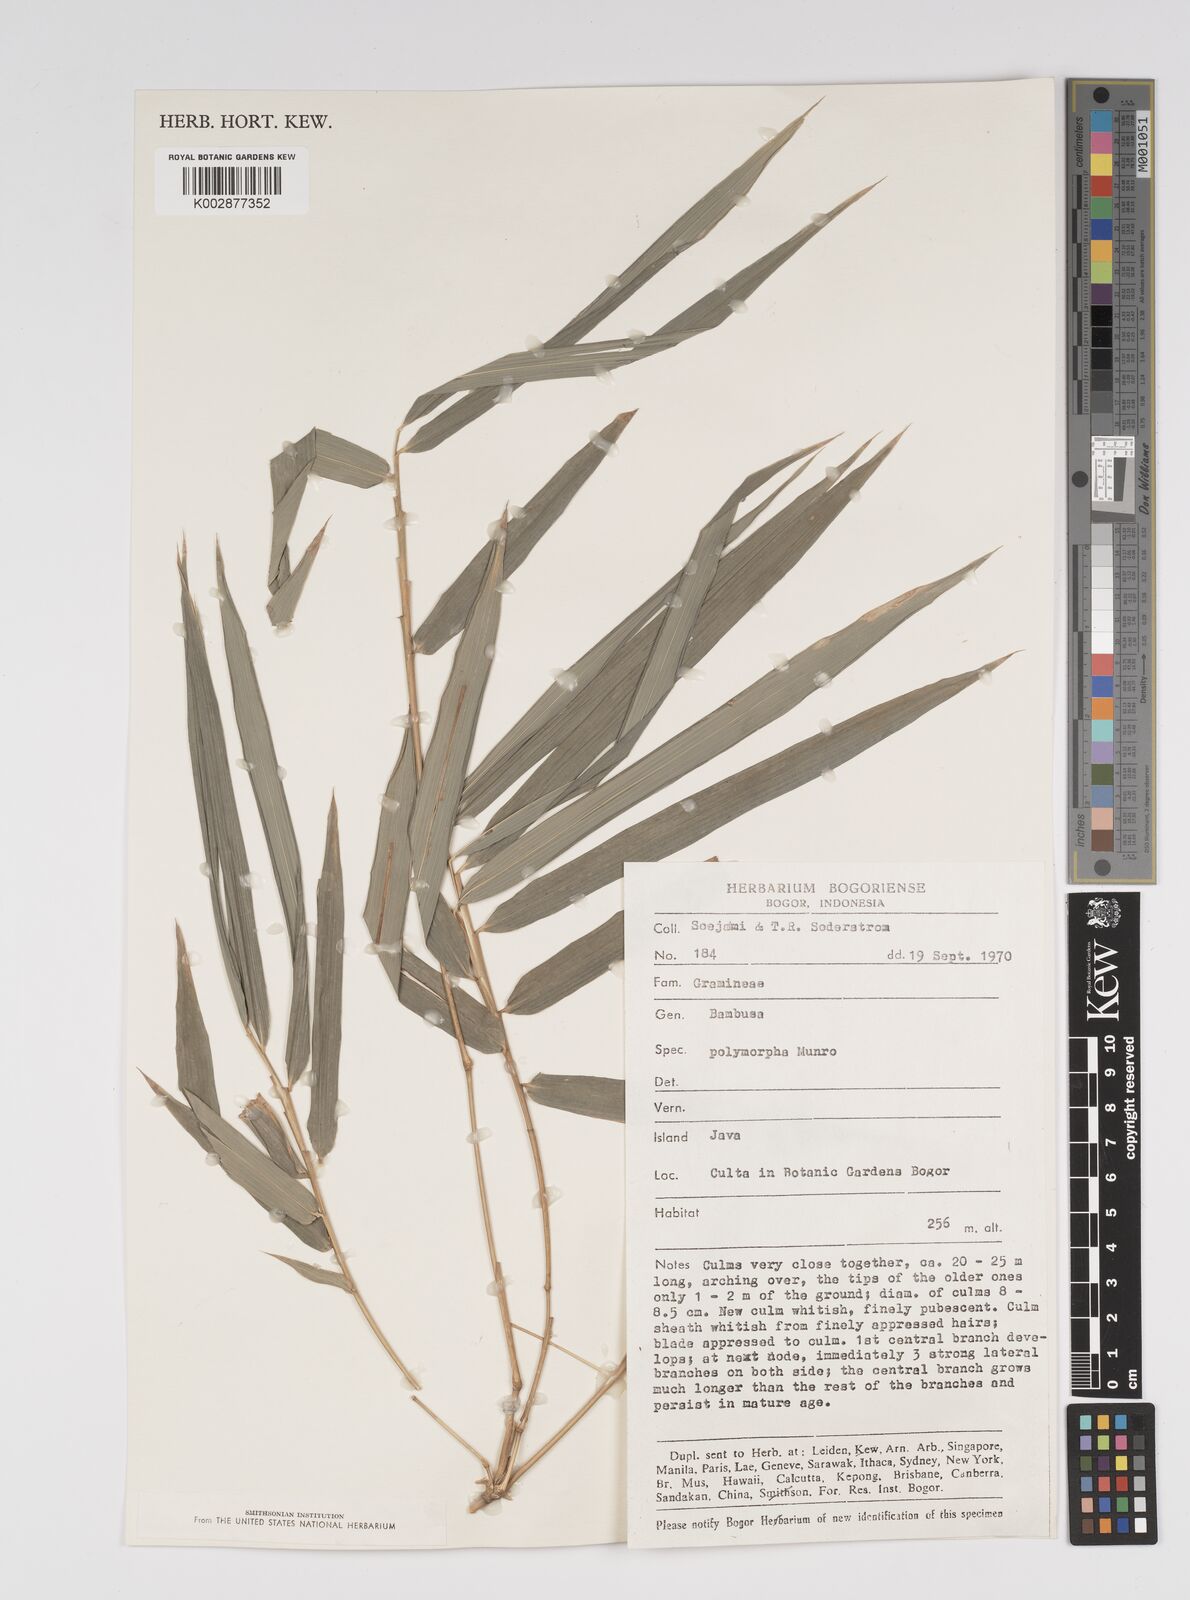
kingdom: Plantae
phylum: Tracheophyta
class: Liliopsida
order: Poales
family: Poaceae
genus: Bambusa
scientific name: Bambusa polymorpha
